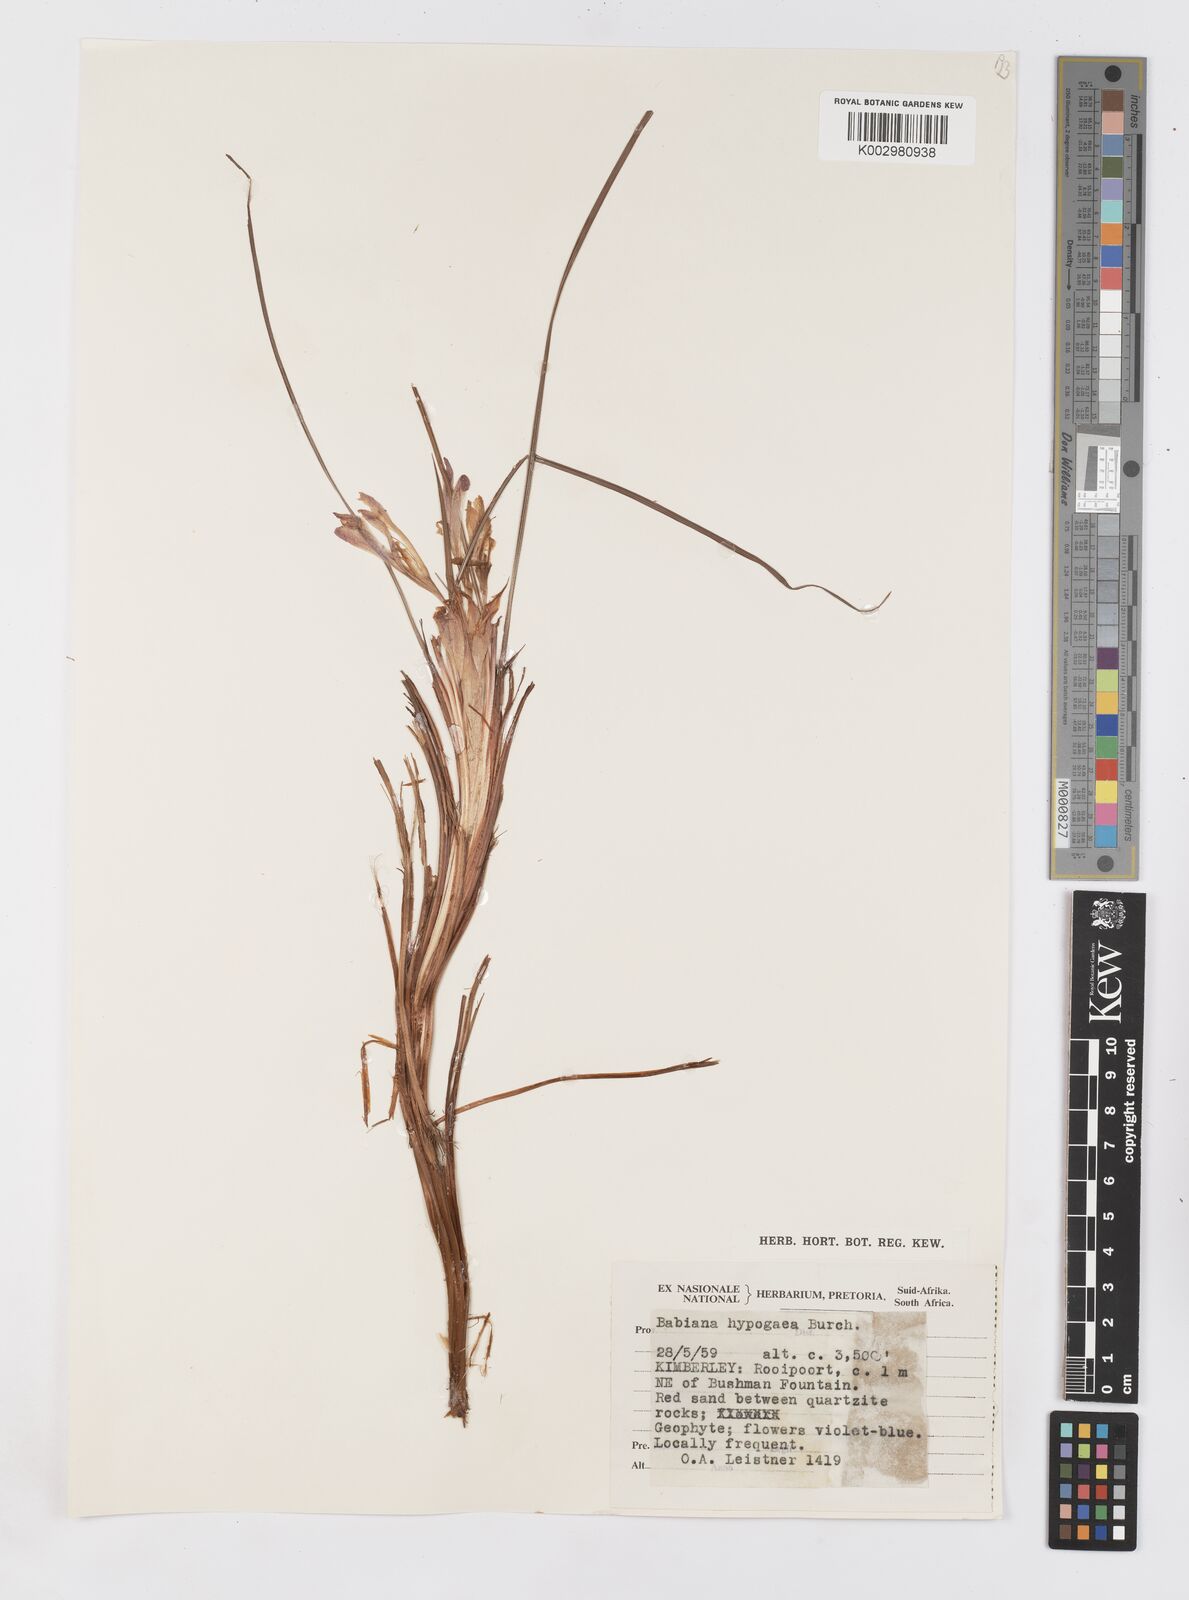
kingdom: Plantae
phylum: Tracheophyta
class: Liliopsida
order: Asparagales
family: Iridaceae
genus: Babiana
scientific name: Babiana hypogaea
